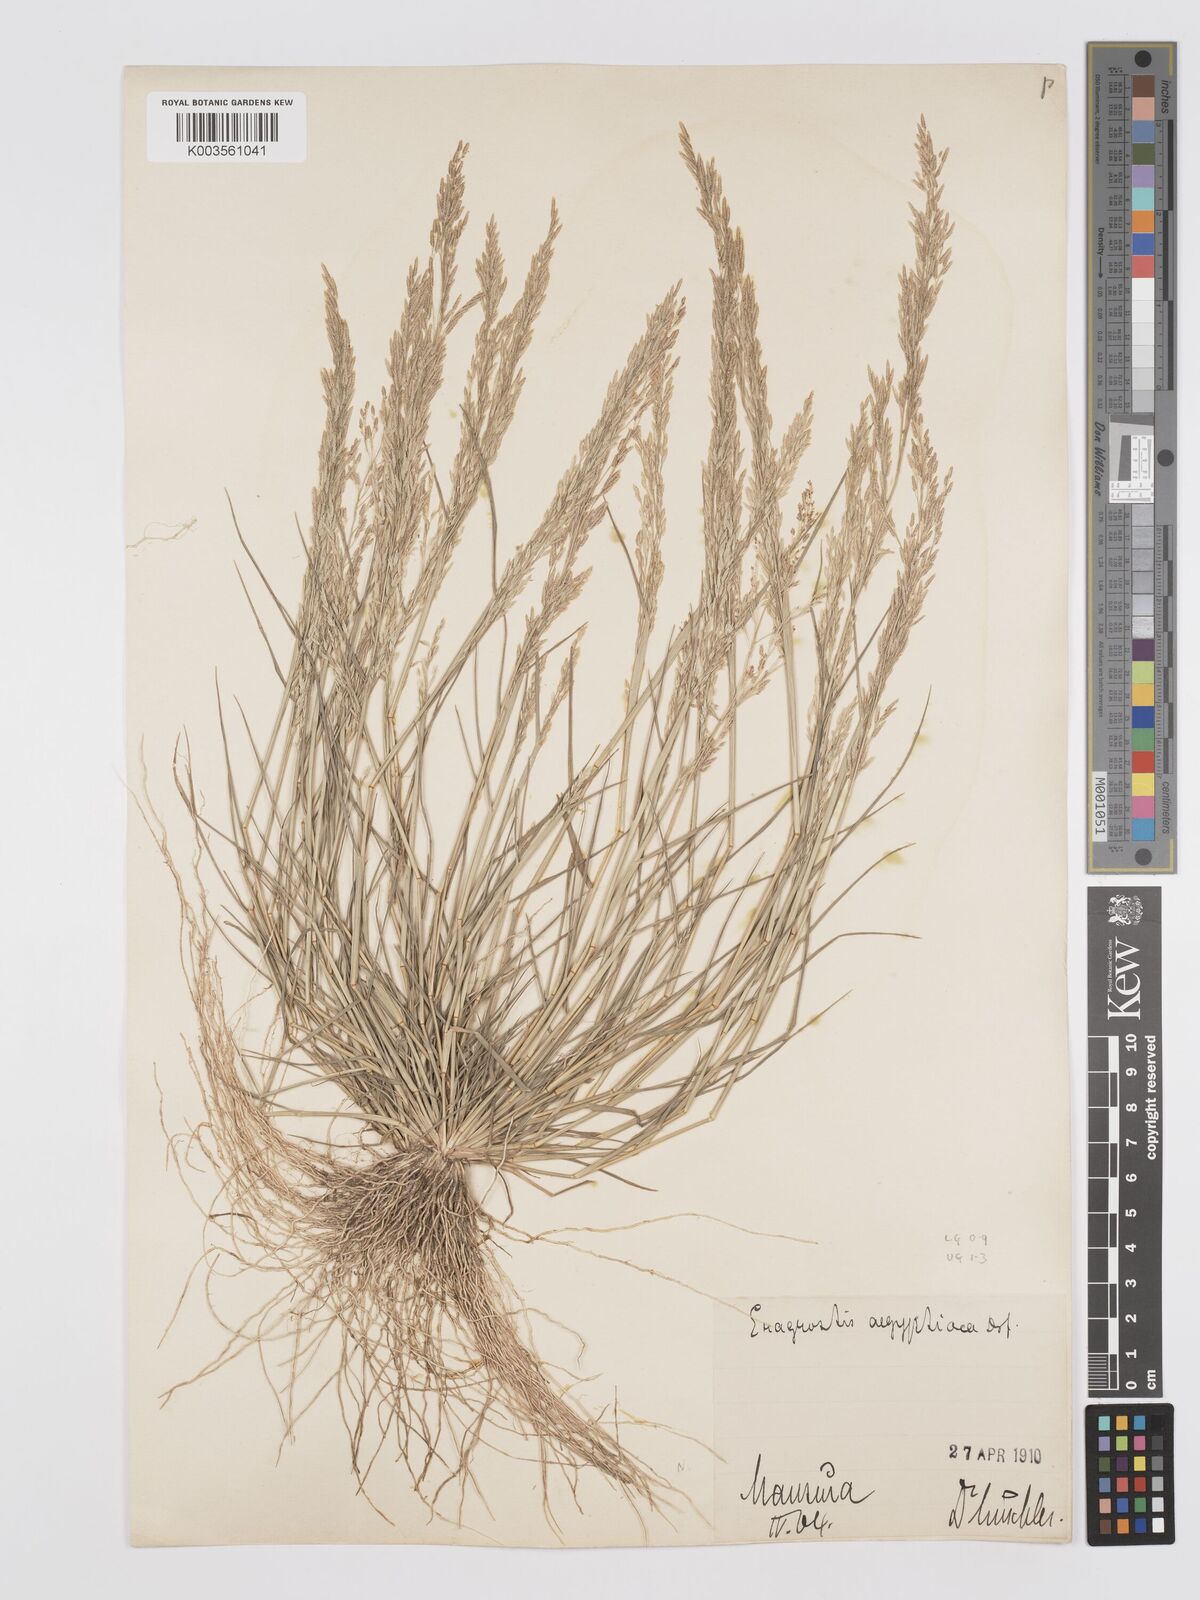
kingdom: Plantae
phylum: Tracheophyta
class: Liliopsida
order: Poales
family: Poaceae
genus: Eragrostis
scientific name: Eragrostis aegyptiaca
